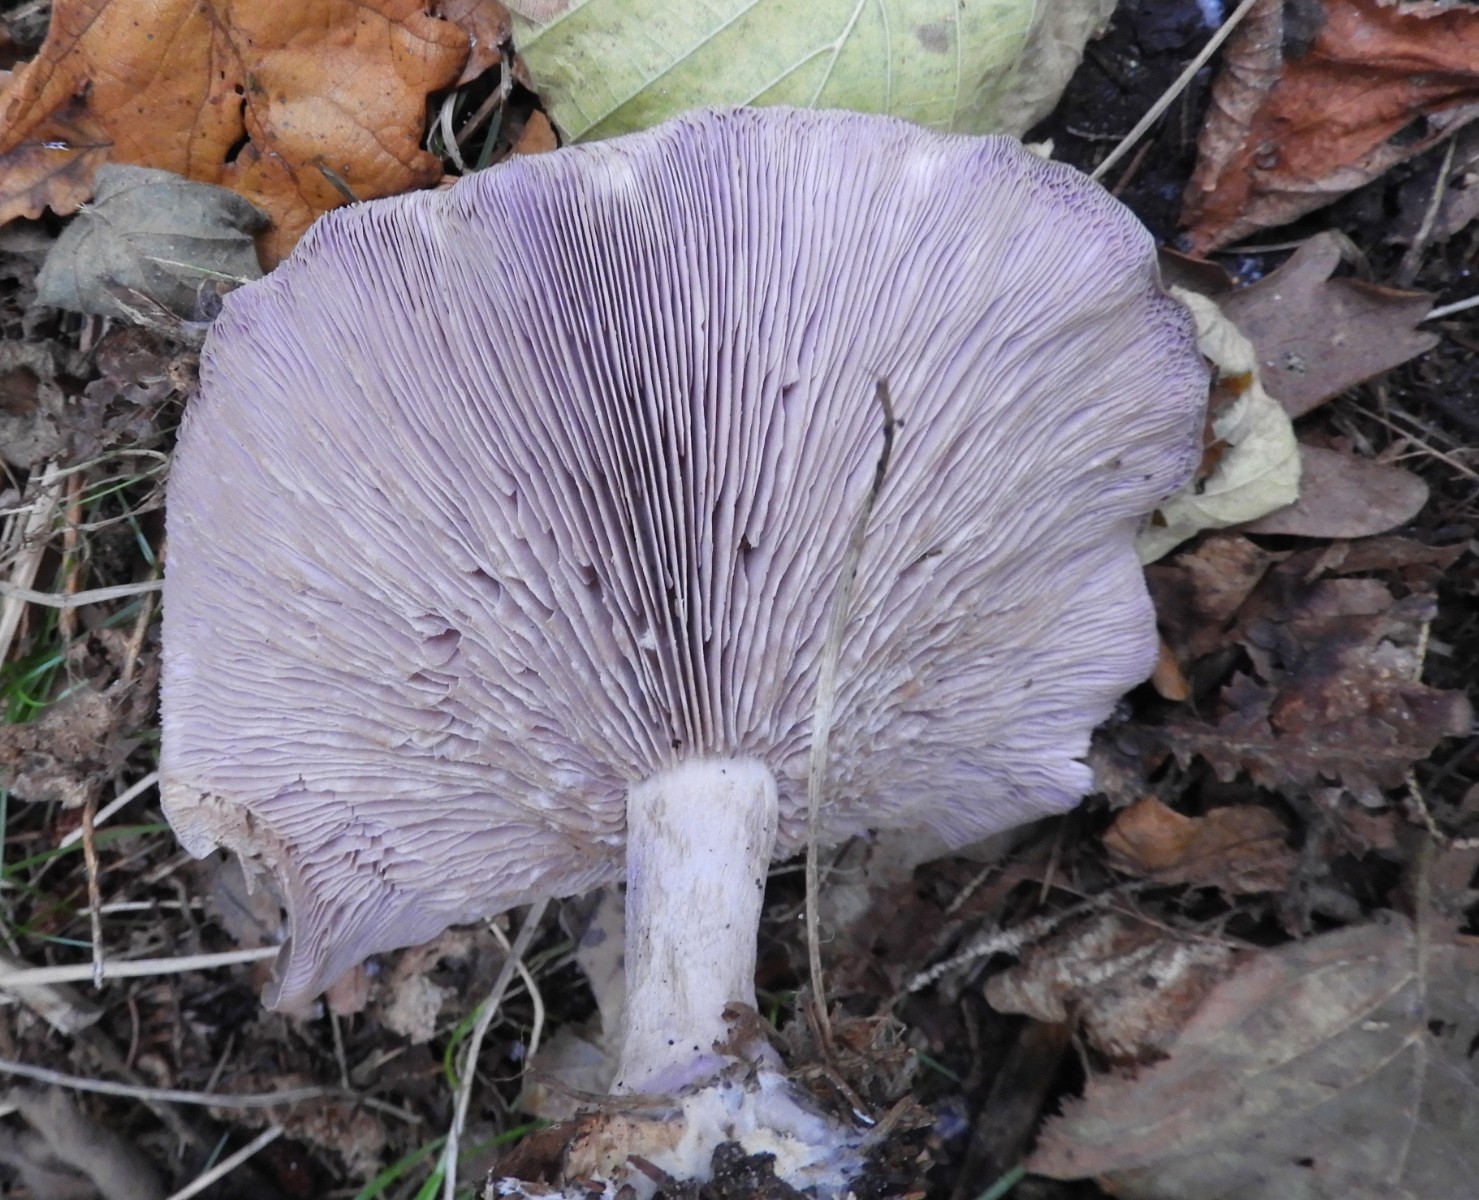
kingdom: Fungi
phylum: Basidiomycota
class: Agaricomycetes
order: Agaricales
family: Tricholomataceae
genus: Lepista
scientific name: Lepista nuda
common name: violet hekseringshat
